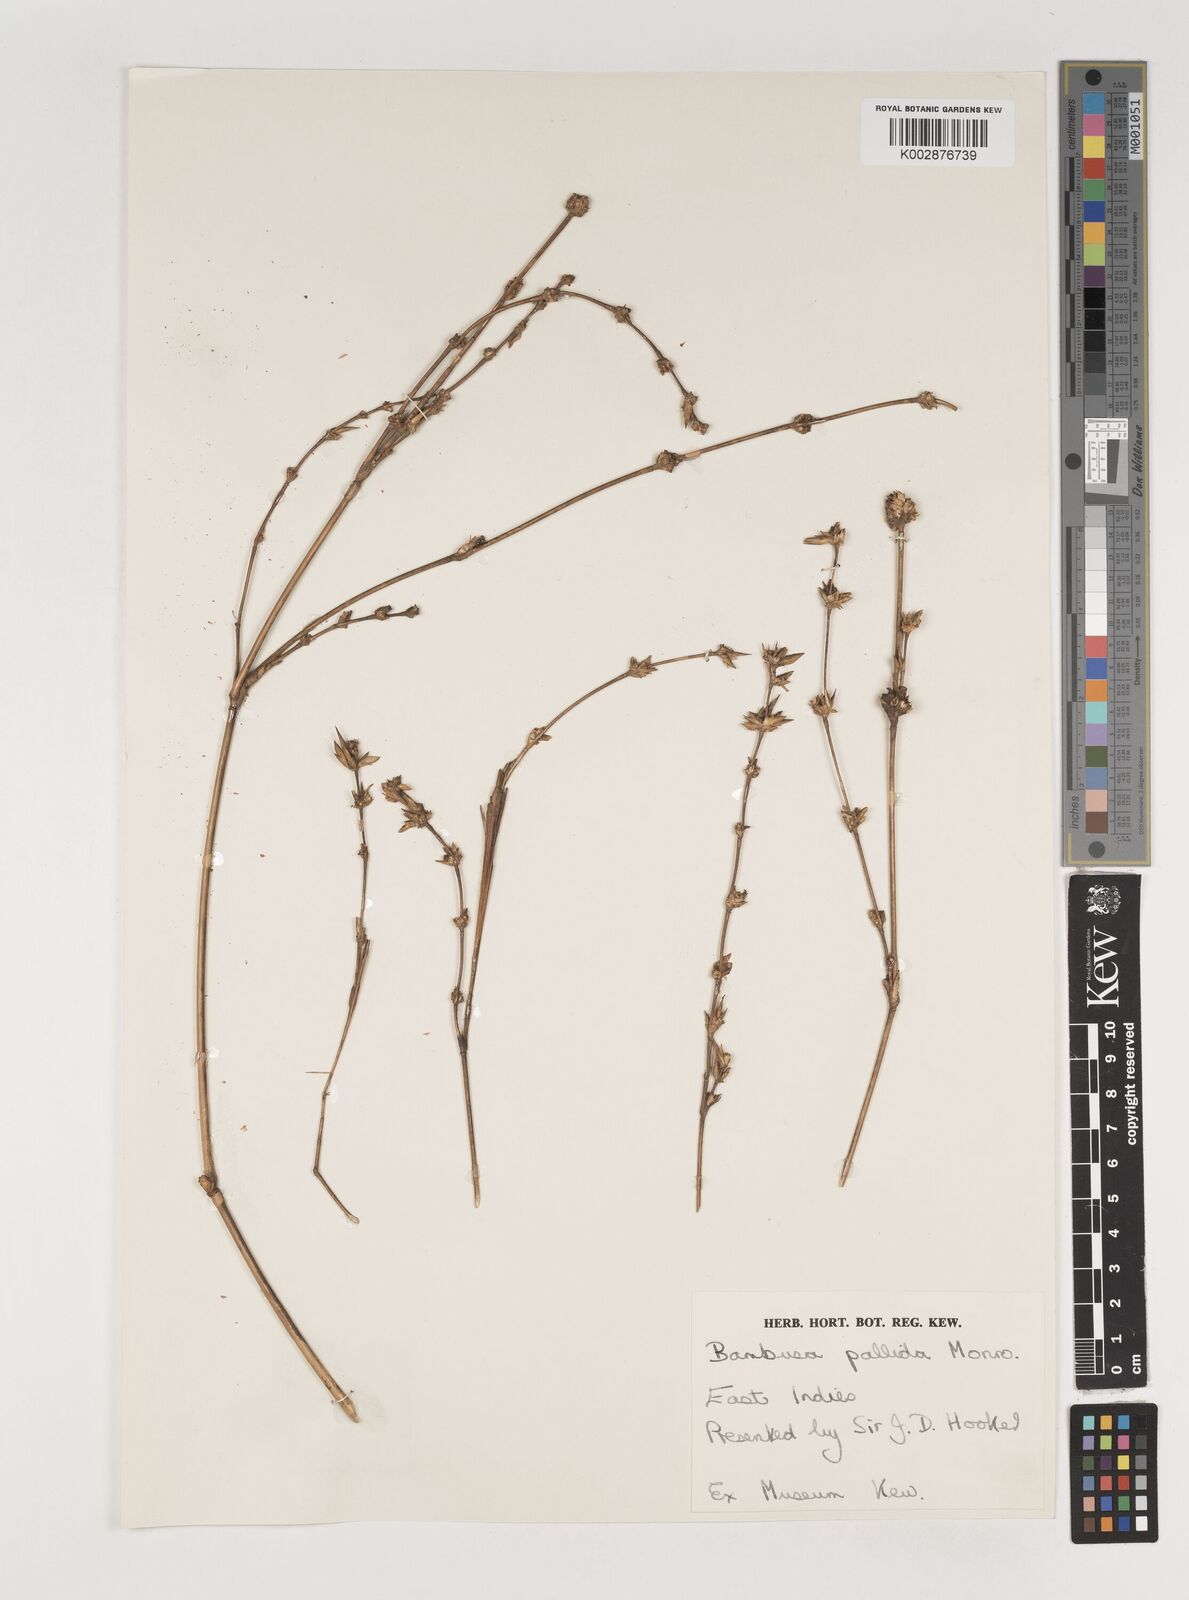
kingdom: Plantae
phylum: Tracheophyta
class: Liliopsida
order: Poales
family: Poaceae
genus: Bambusa
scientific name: Bambusa
